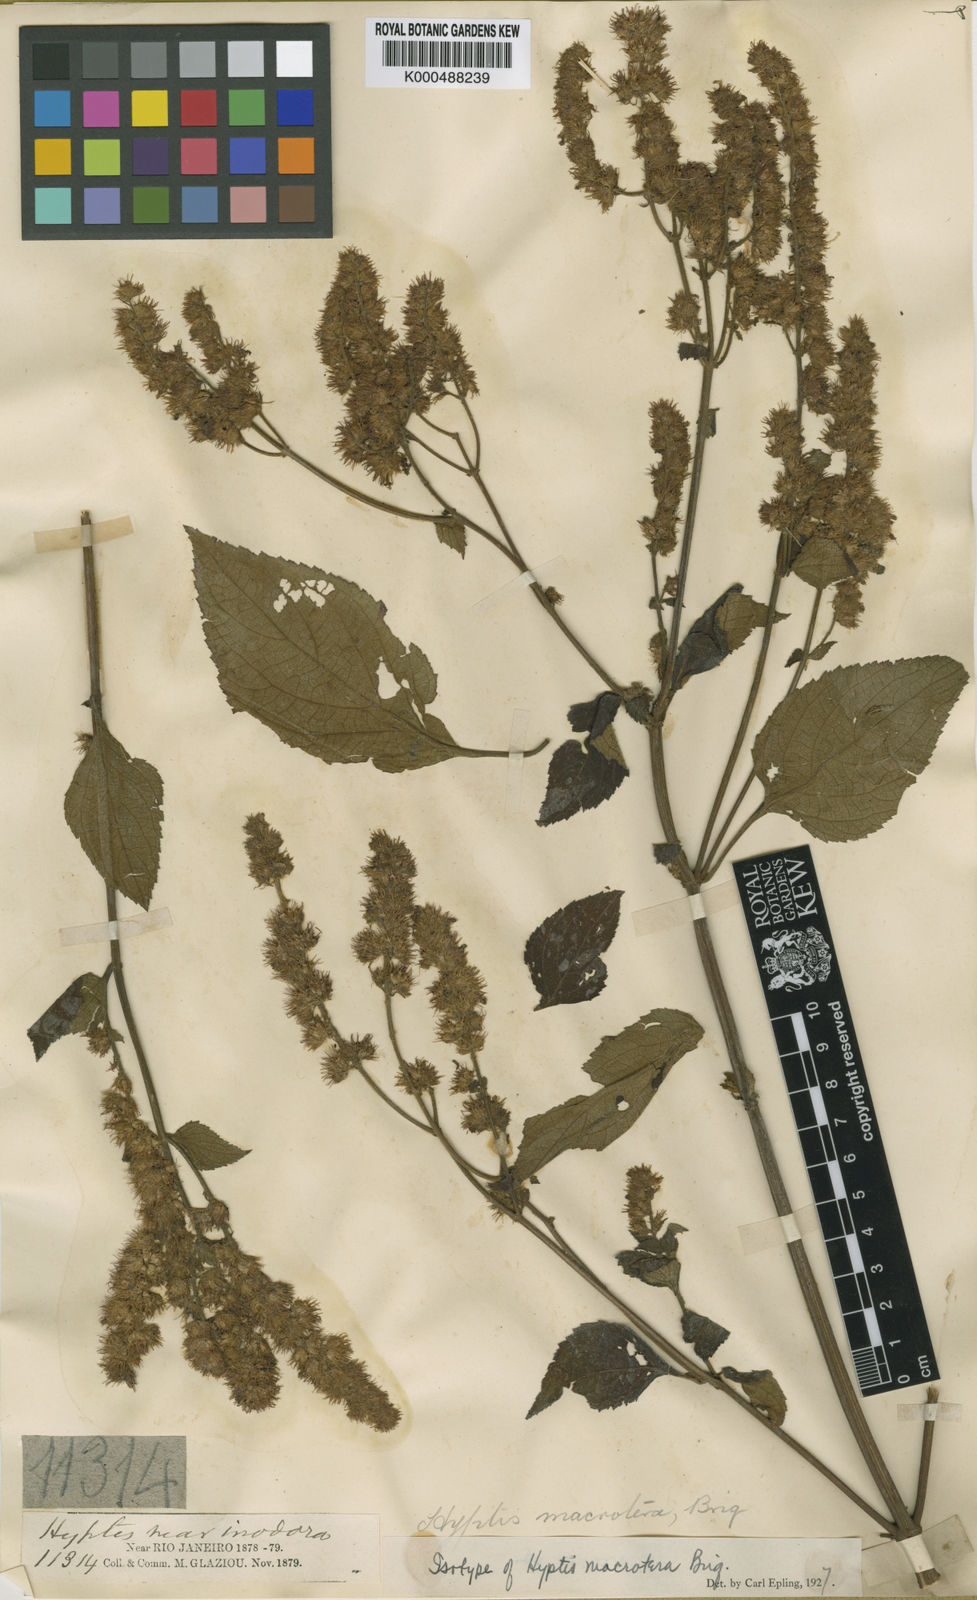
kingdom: Plantae
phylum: Tracheophyta
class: Magnoliopsida
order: Lamiales
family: Lamiaceae
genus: Cantinoa
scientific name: Cantinoa macrotera
